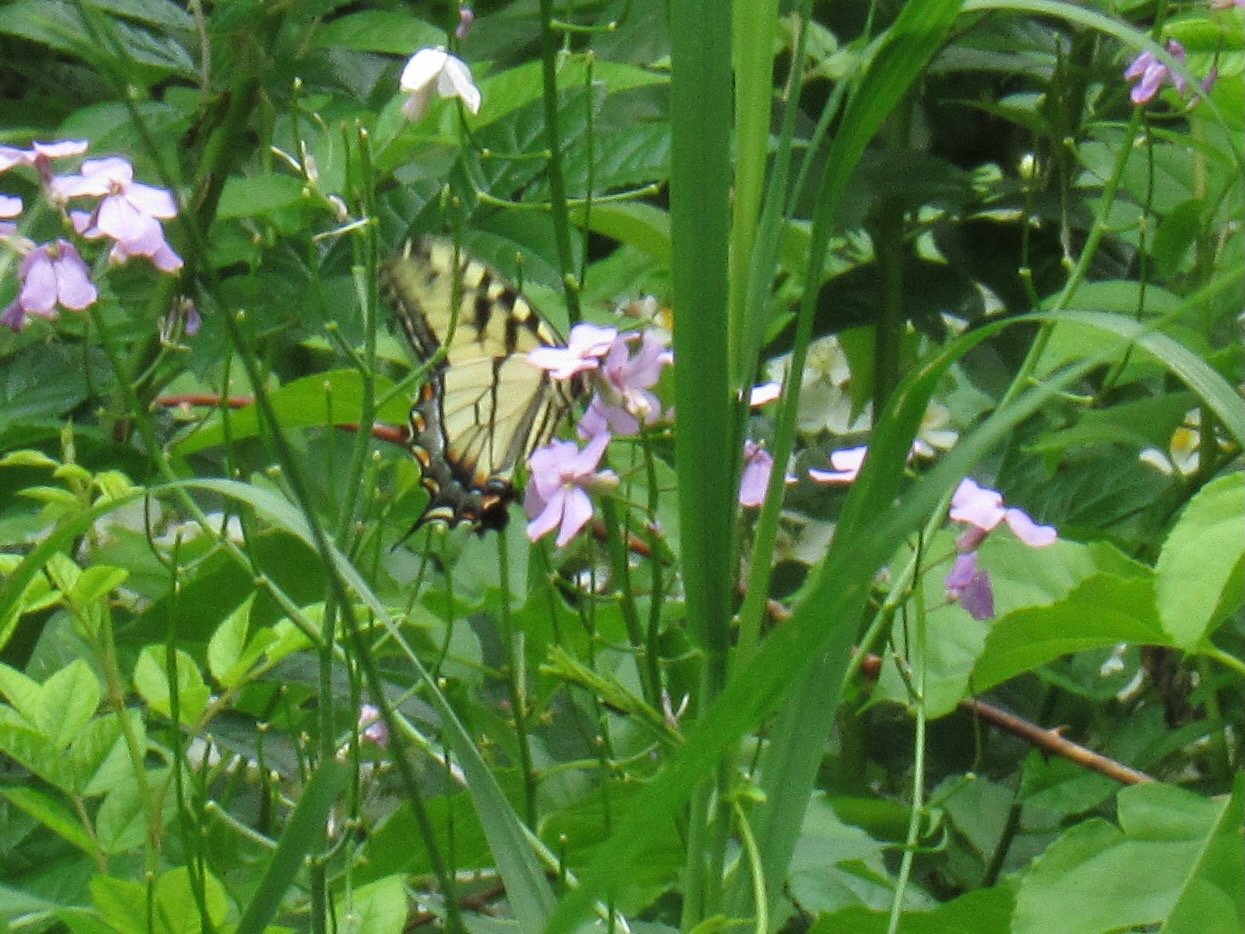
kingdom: Animalia
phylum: Arthropoda
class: Insecta
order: Lepidoptera
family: Papilionidae
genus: Pterourus
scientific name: Pterourus
